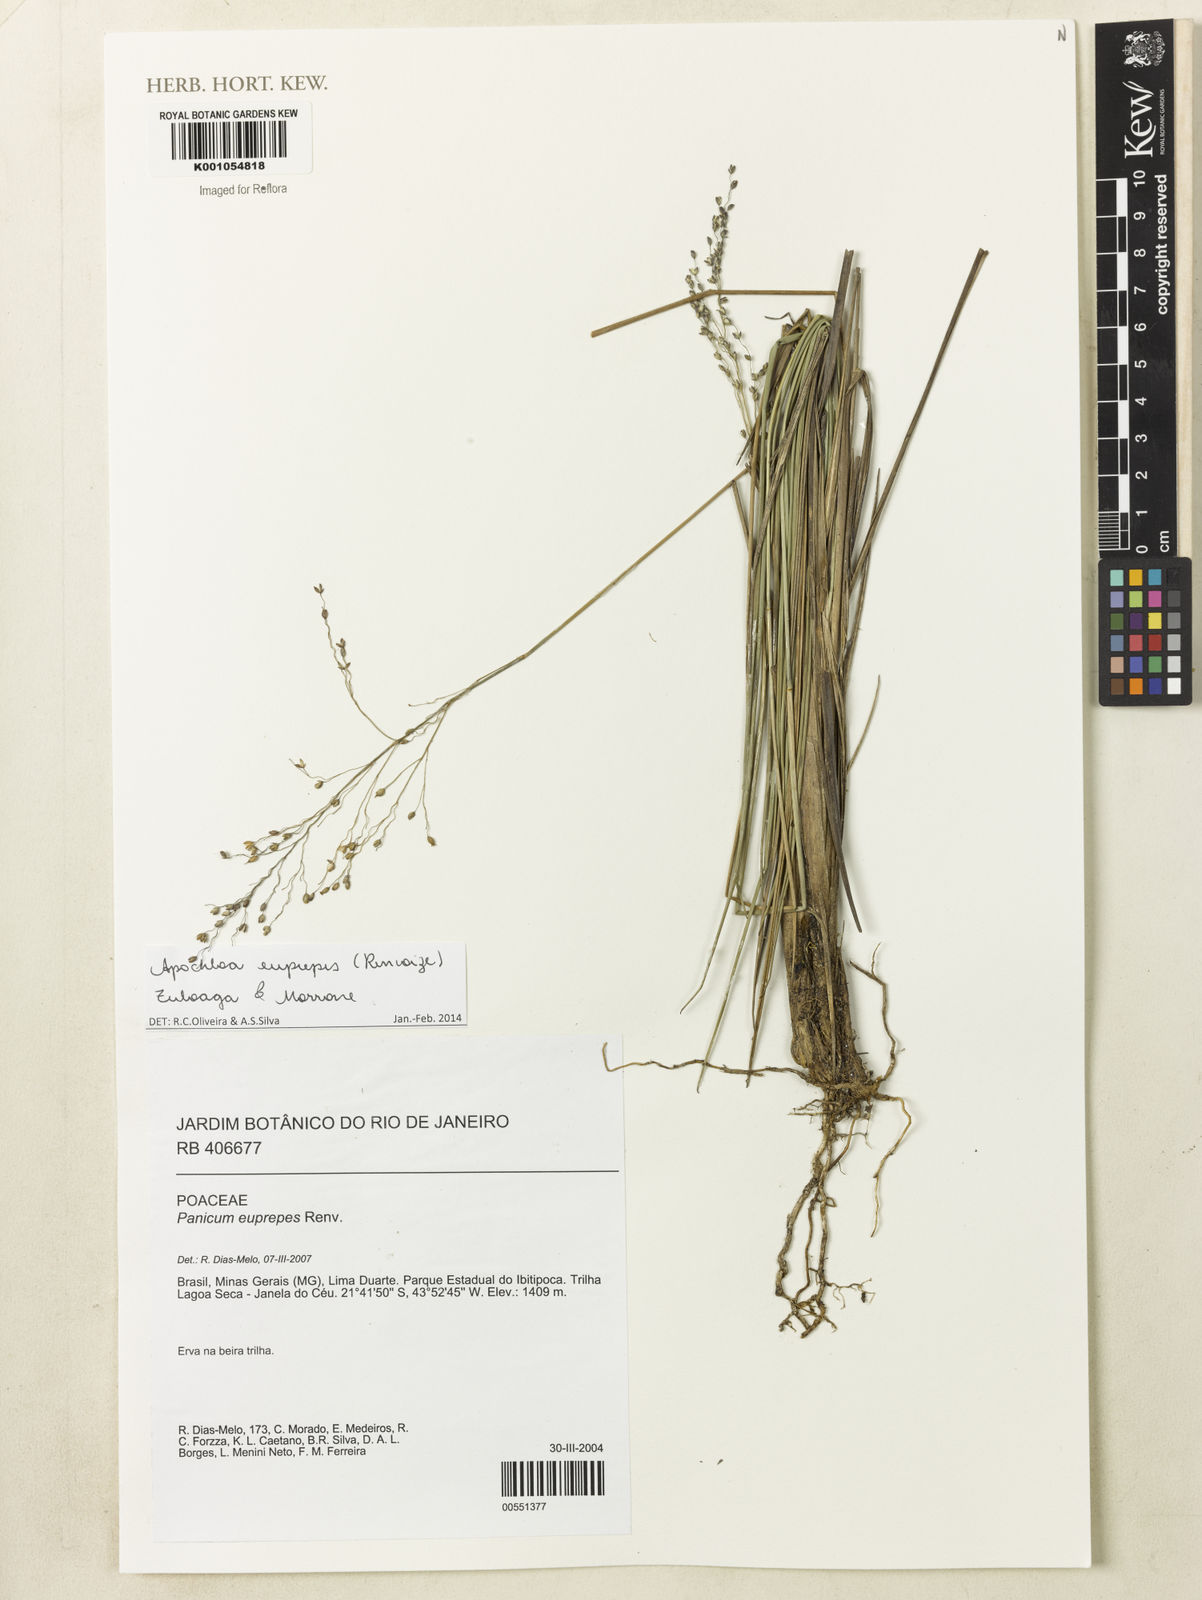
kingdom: Plantae
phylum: Tracheophyta
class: Liliopsida
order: Poales
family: Poaceae
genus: Apochloa
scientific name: Apochloa euprepes
